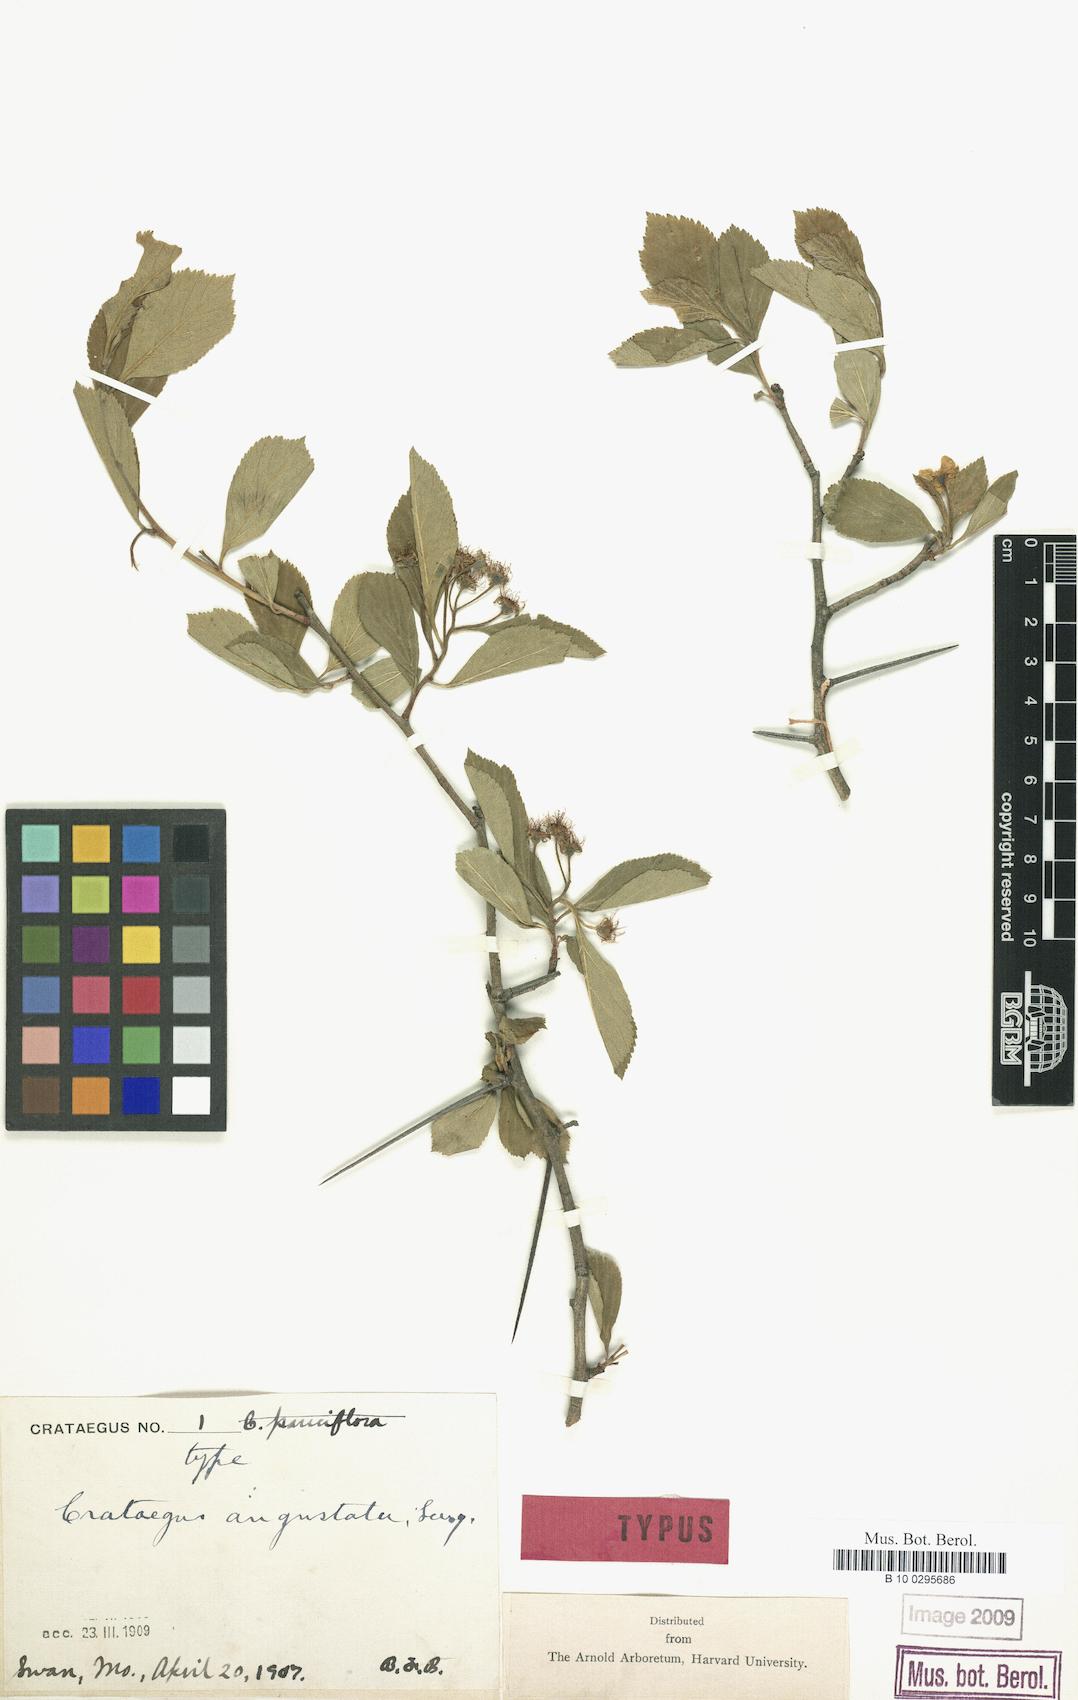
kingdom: Plantae
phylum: Tracheophyta
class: Magnoliopsida
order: Rosales
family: Rosaceae
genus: Crataegus
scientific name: Crataegus angustata
